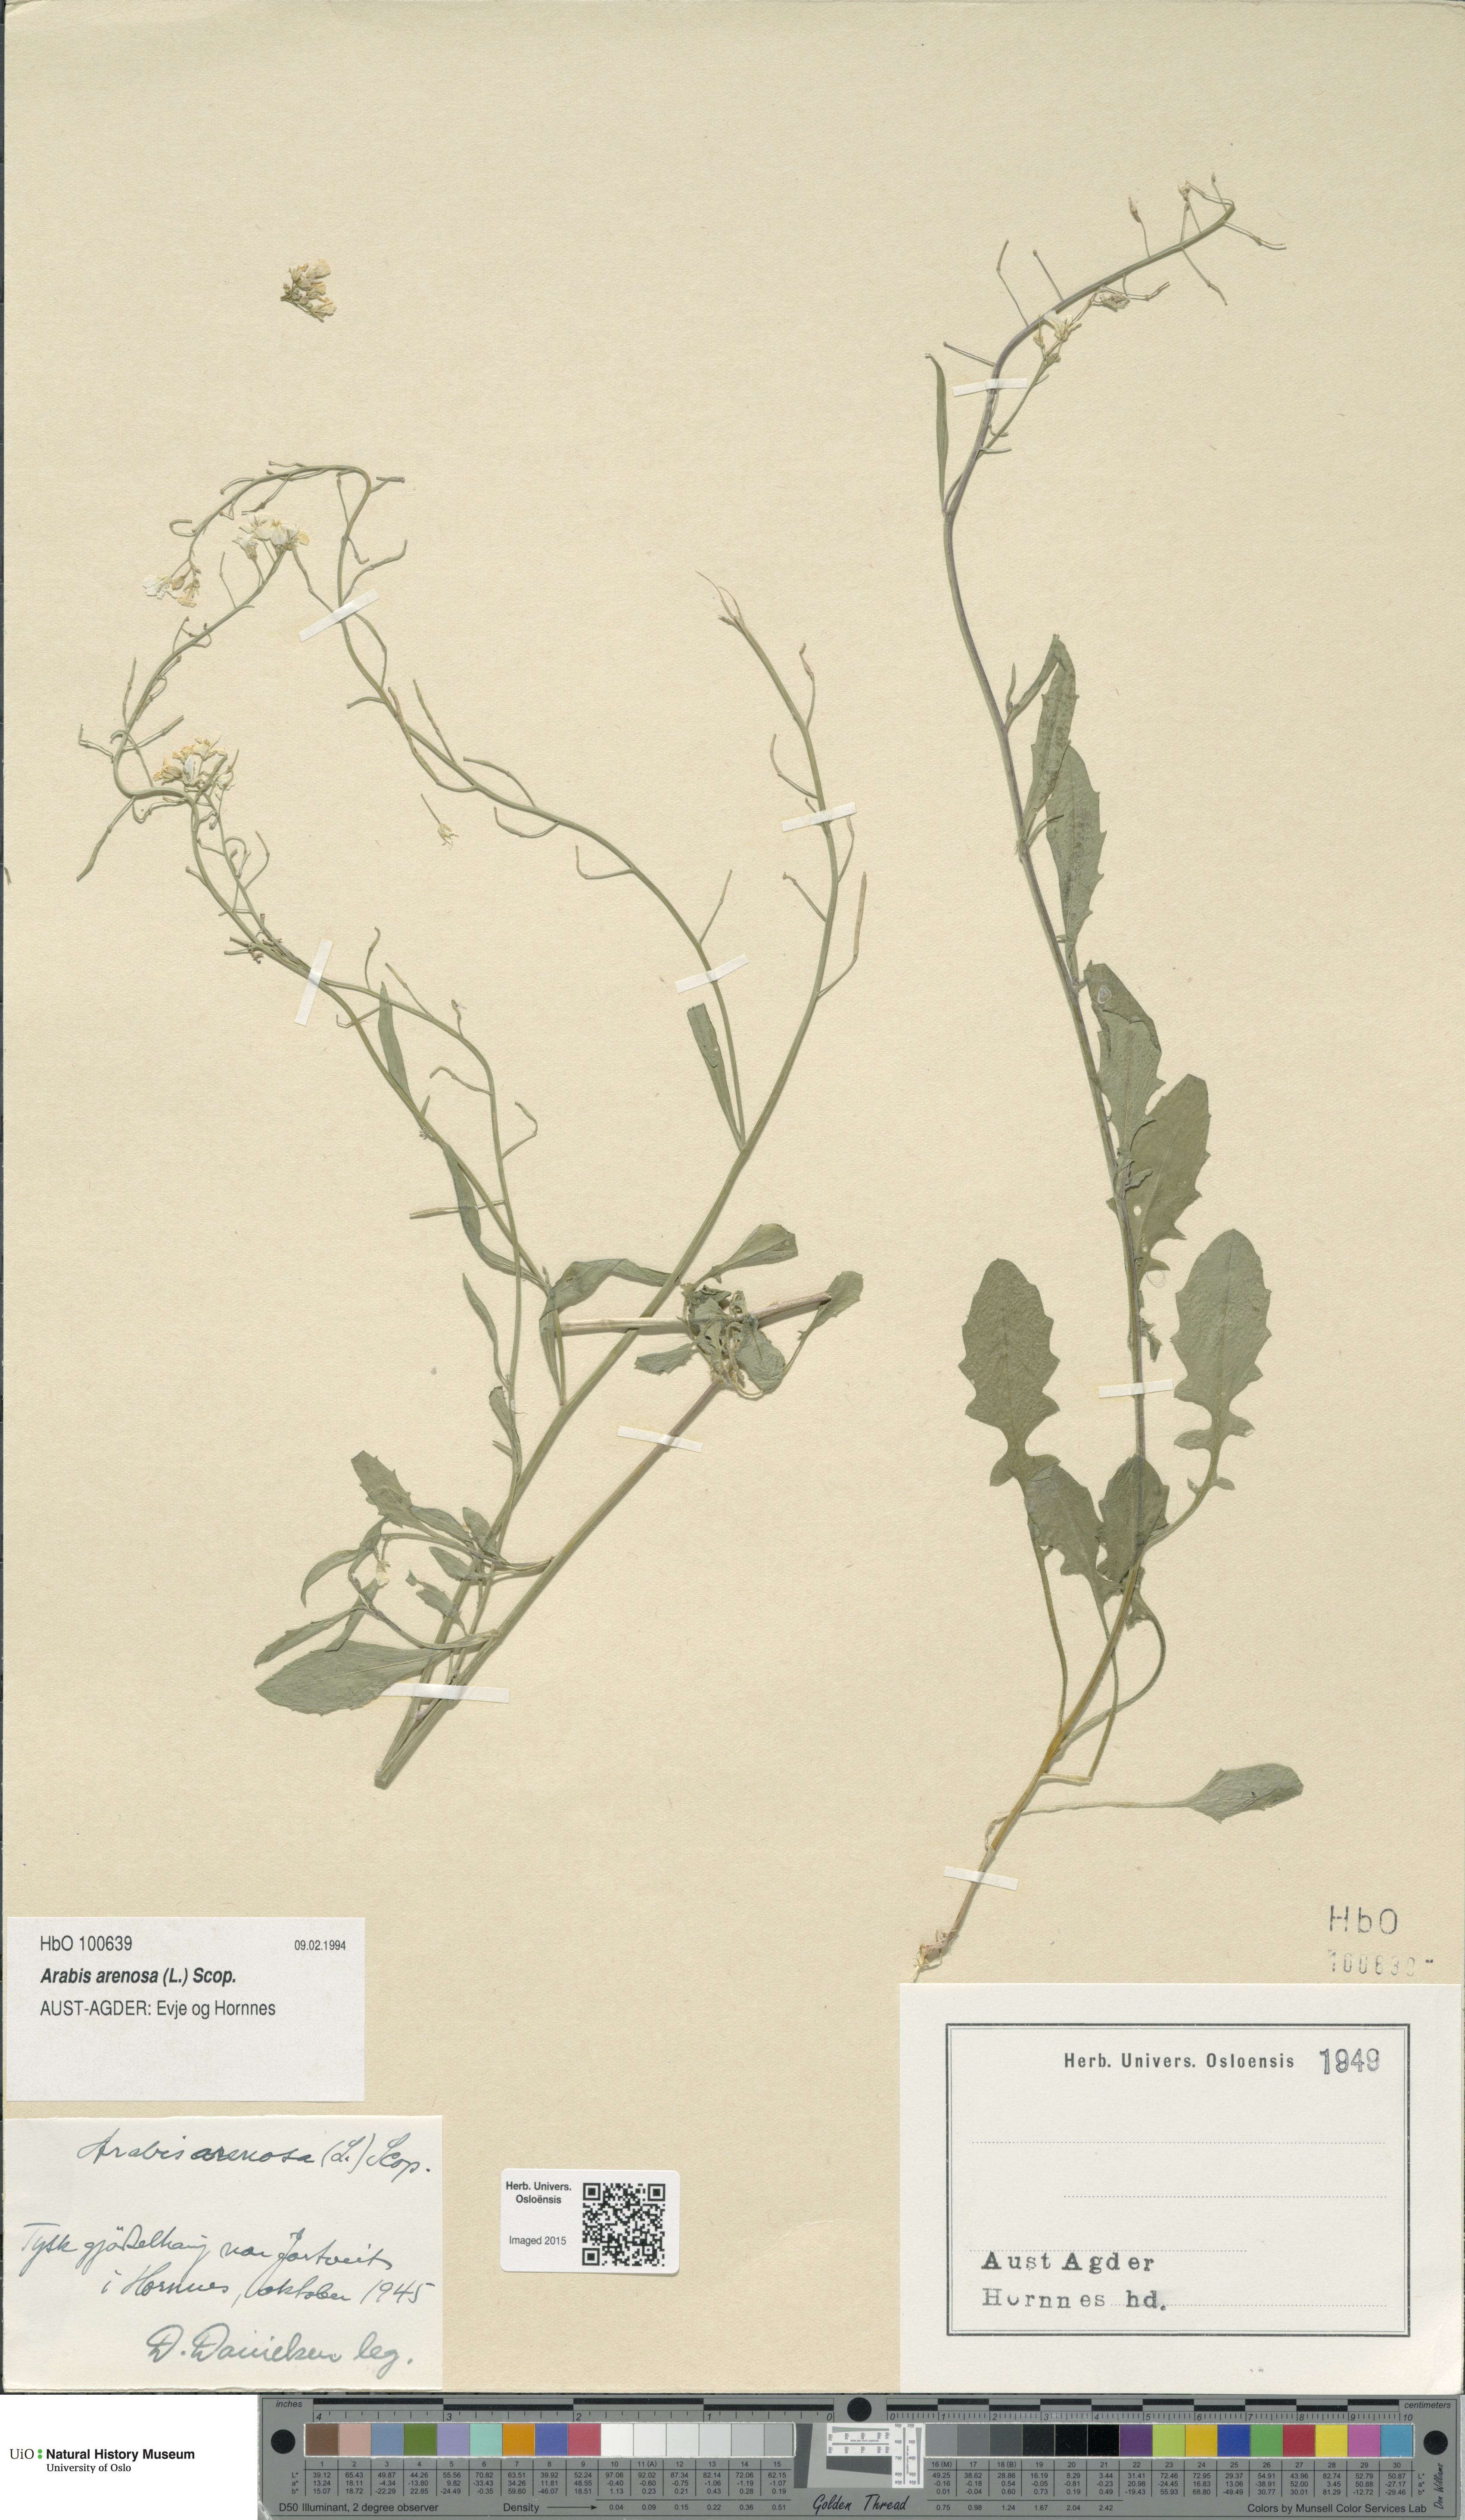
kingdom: Plantae
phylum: Tracheophyta
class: Magnoliopsida
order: Brassicales
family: Brassicaceae
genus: Arabidopsis
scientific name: Arabidopsis arenosa
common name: Sand rock-cress
